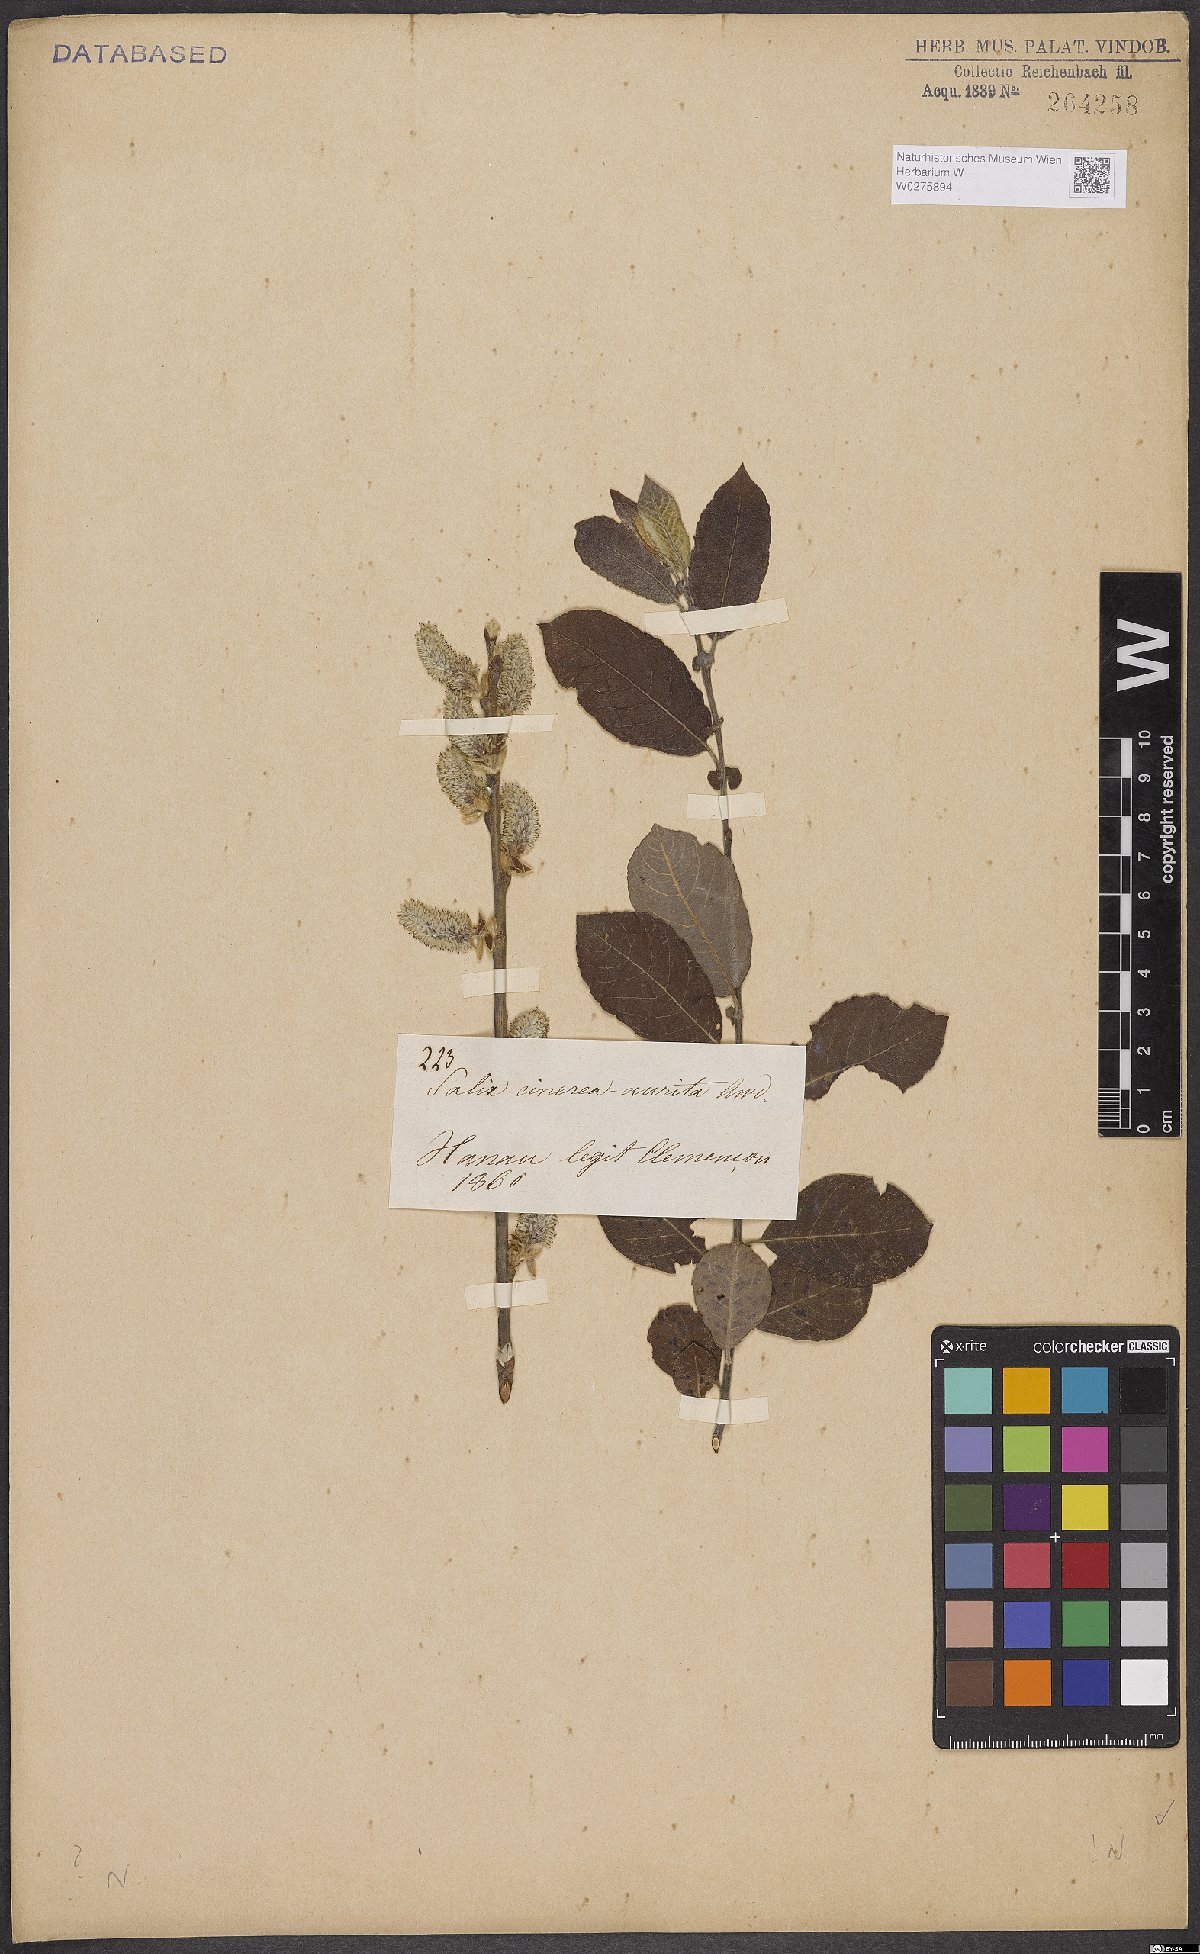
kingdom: Plantae
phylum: Tracheophyta
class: Magnoliopsida
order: Malpighiales
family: Salicaceae
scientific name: Salicaceae
